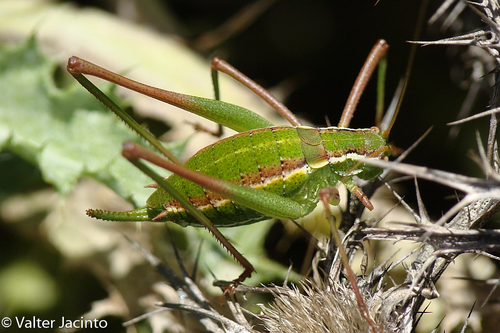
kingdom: Animalia
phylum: Arthropoda
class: Insecta
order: Orthoptera
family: Tettigoniidae
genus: Odontura
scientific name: Odontura glabricauda
